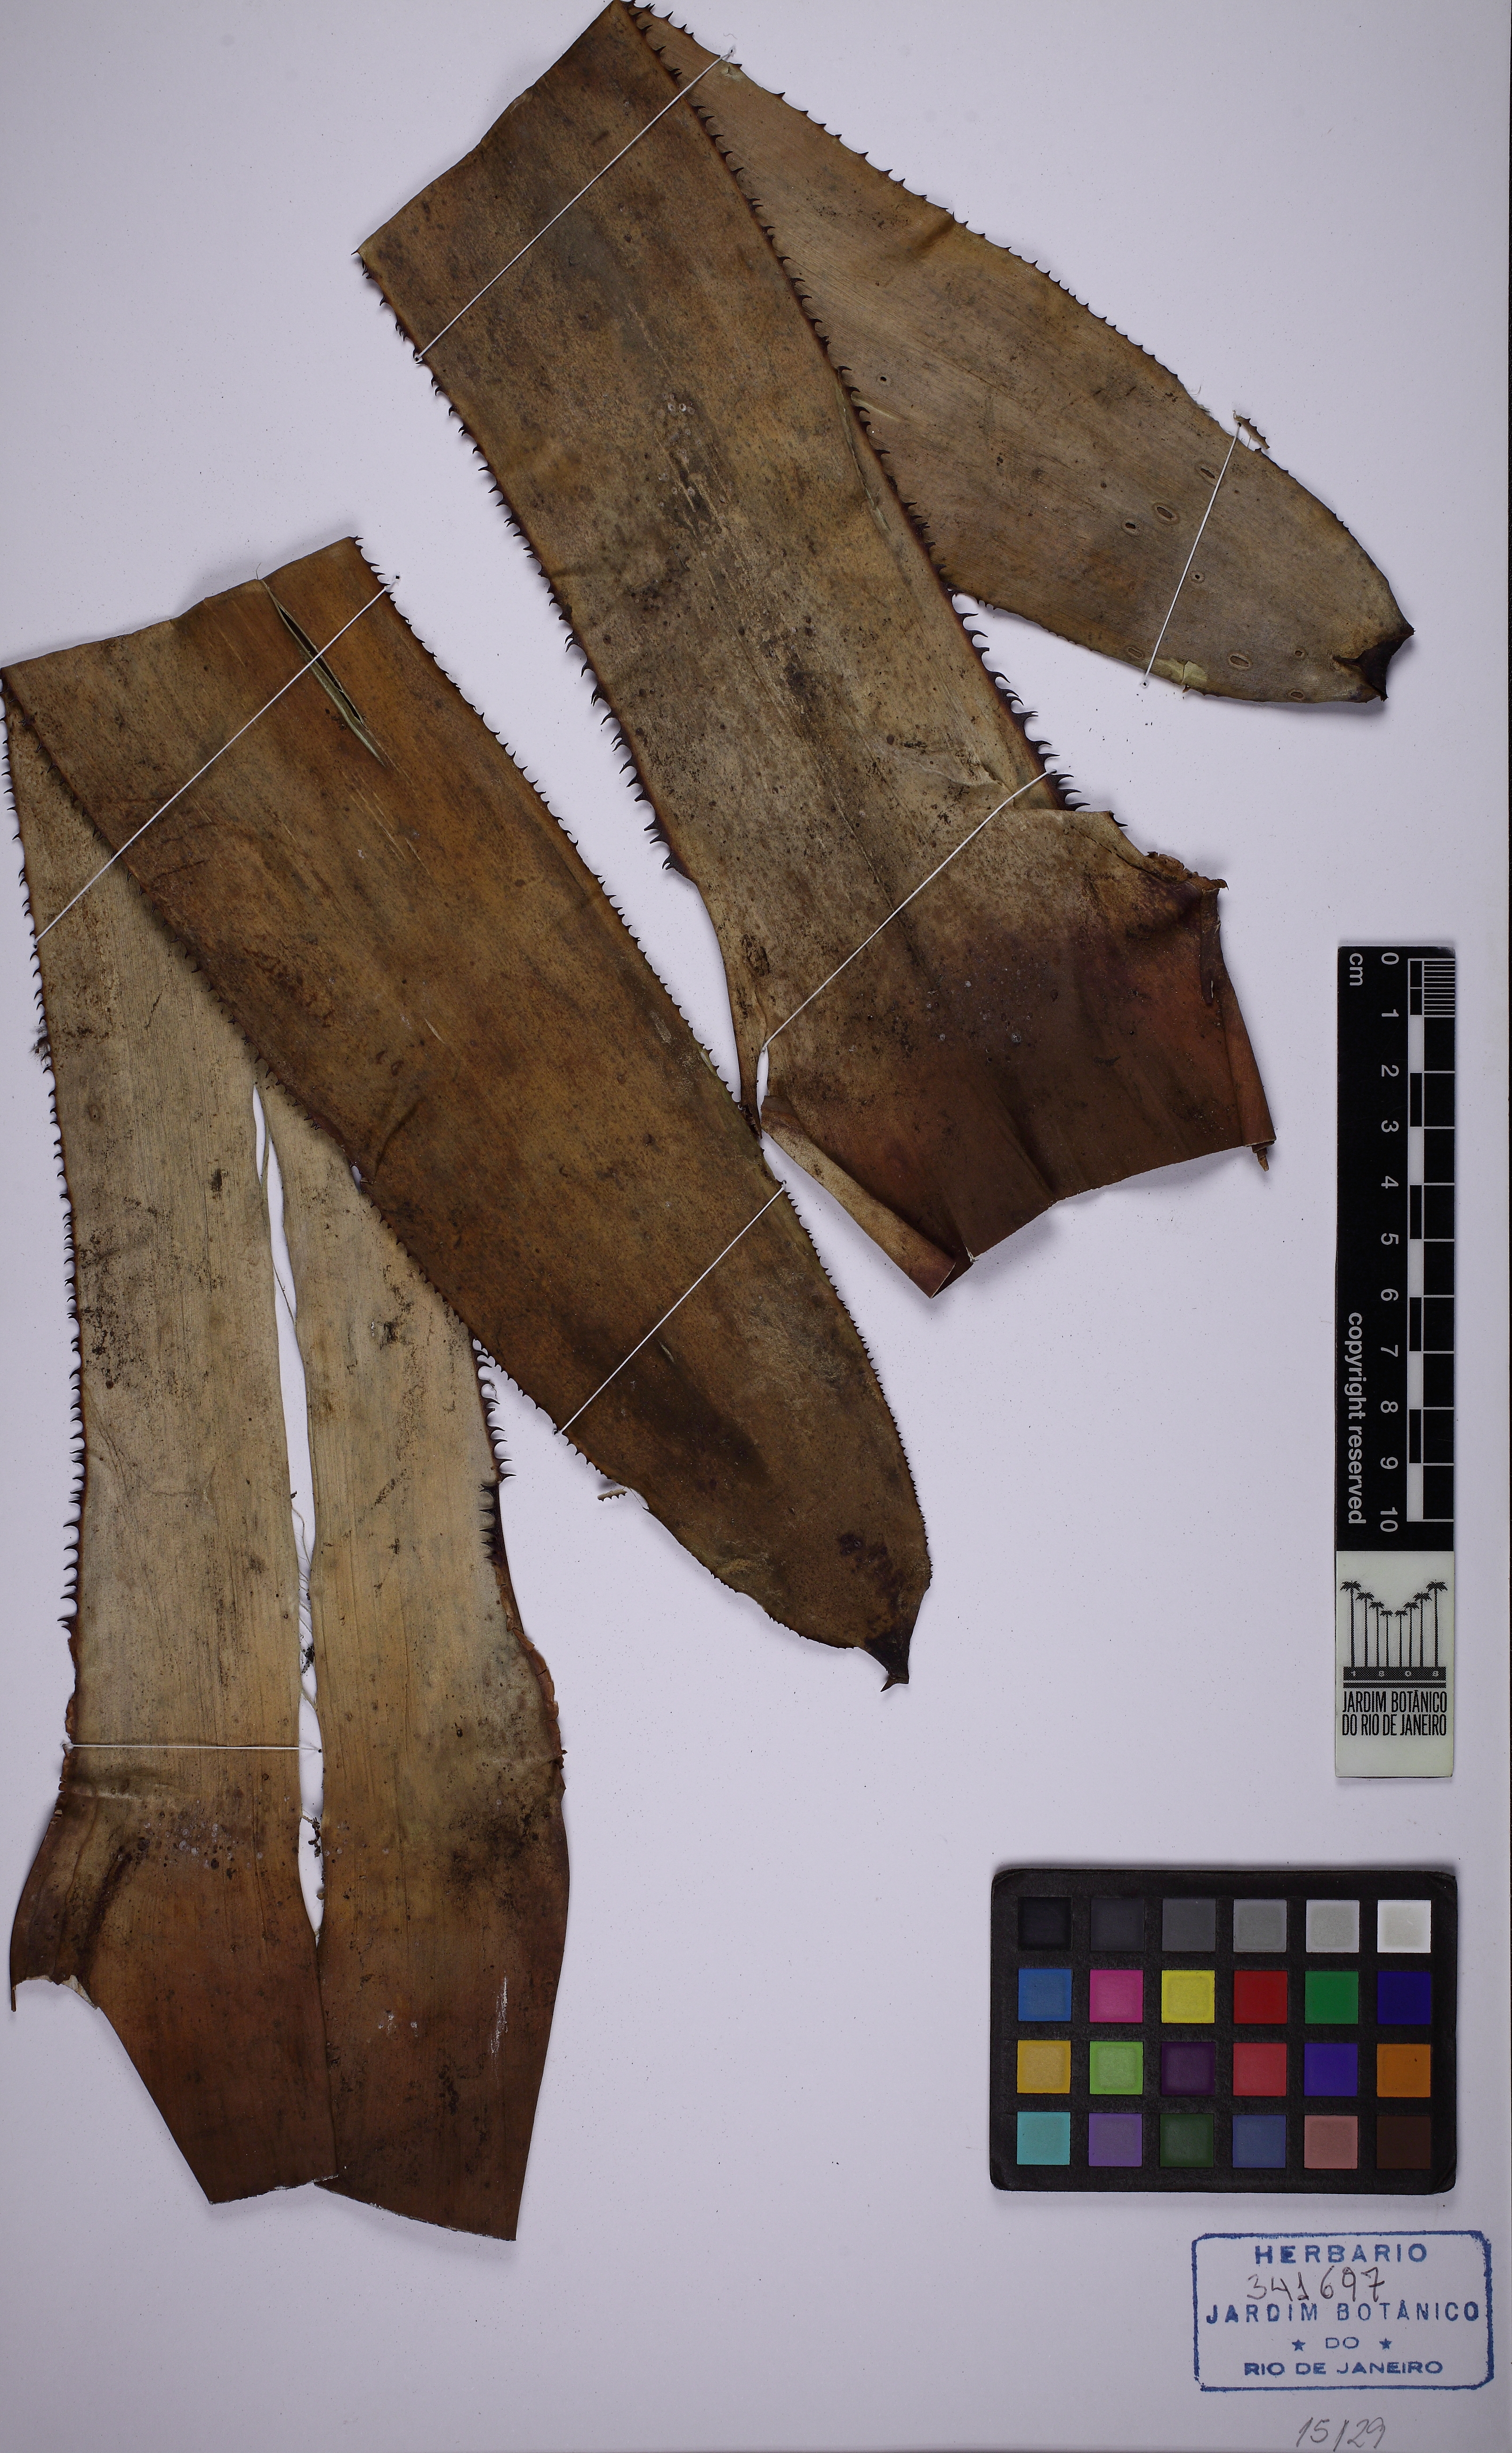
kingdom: Plantae
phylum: Tracheophyta
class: Liliopsida
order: Poales
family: Bromeliaceae
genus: Aechmea
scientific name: Aechmea tomentosa
